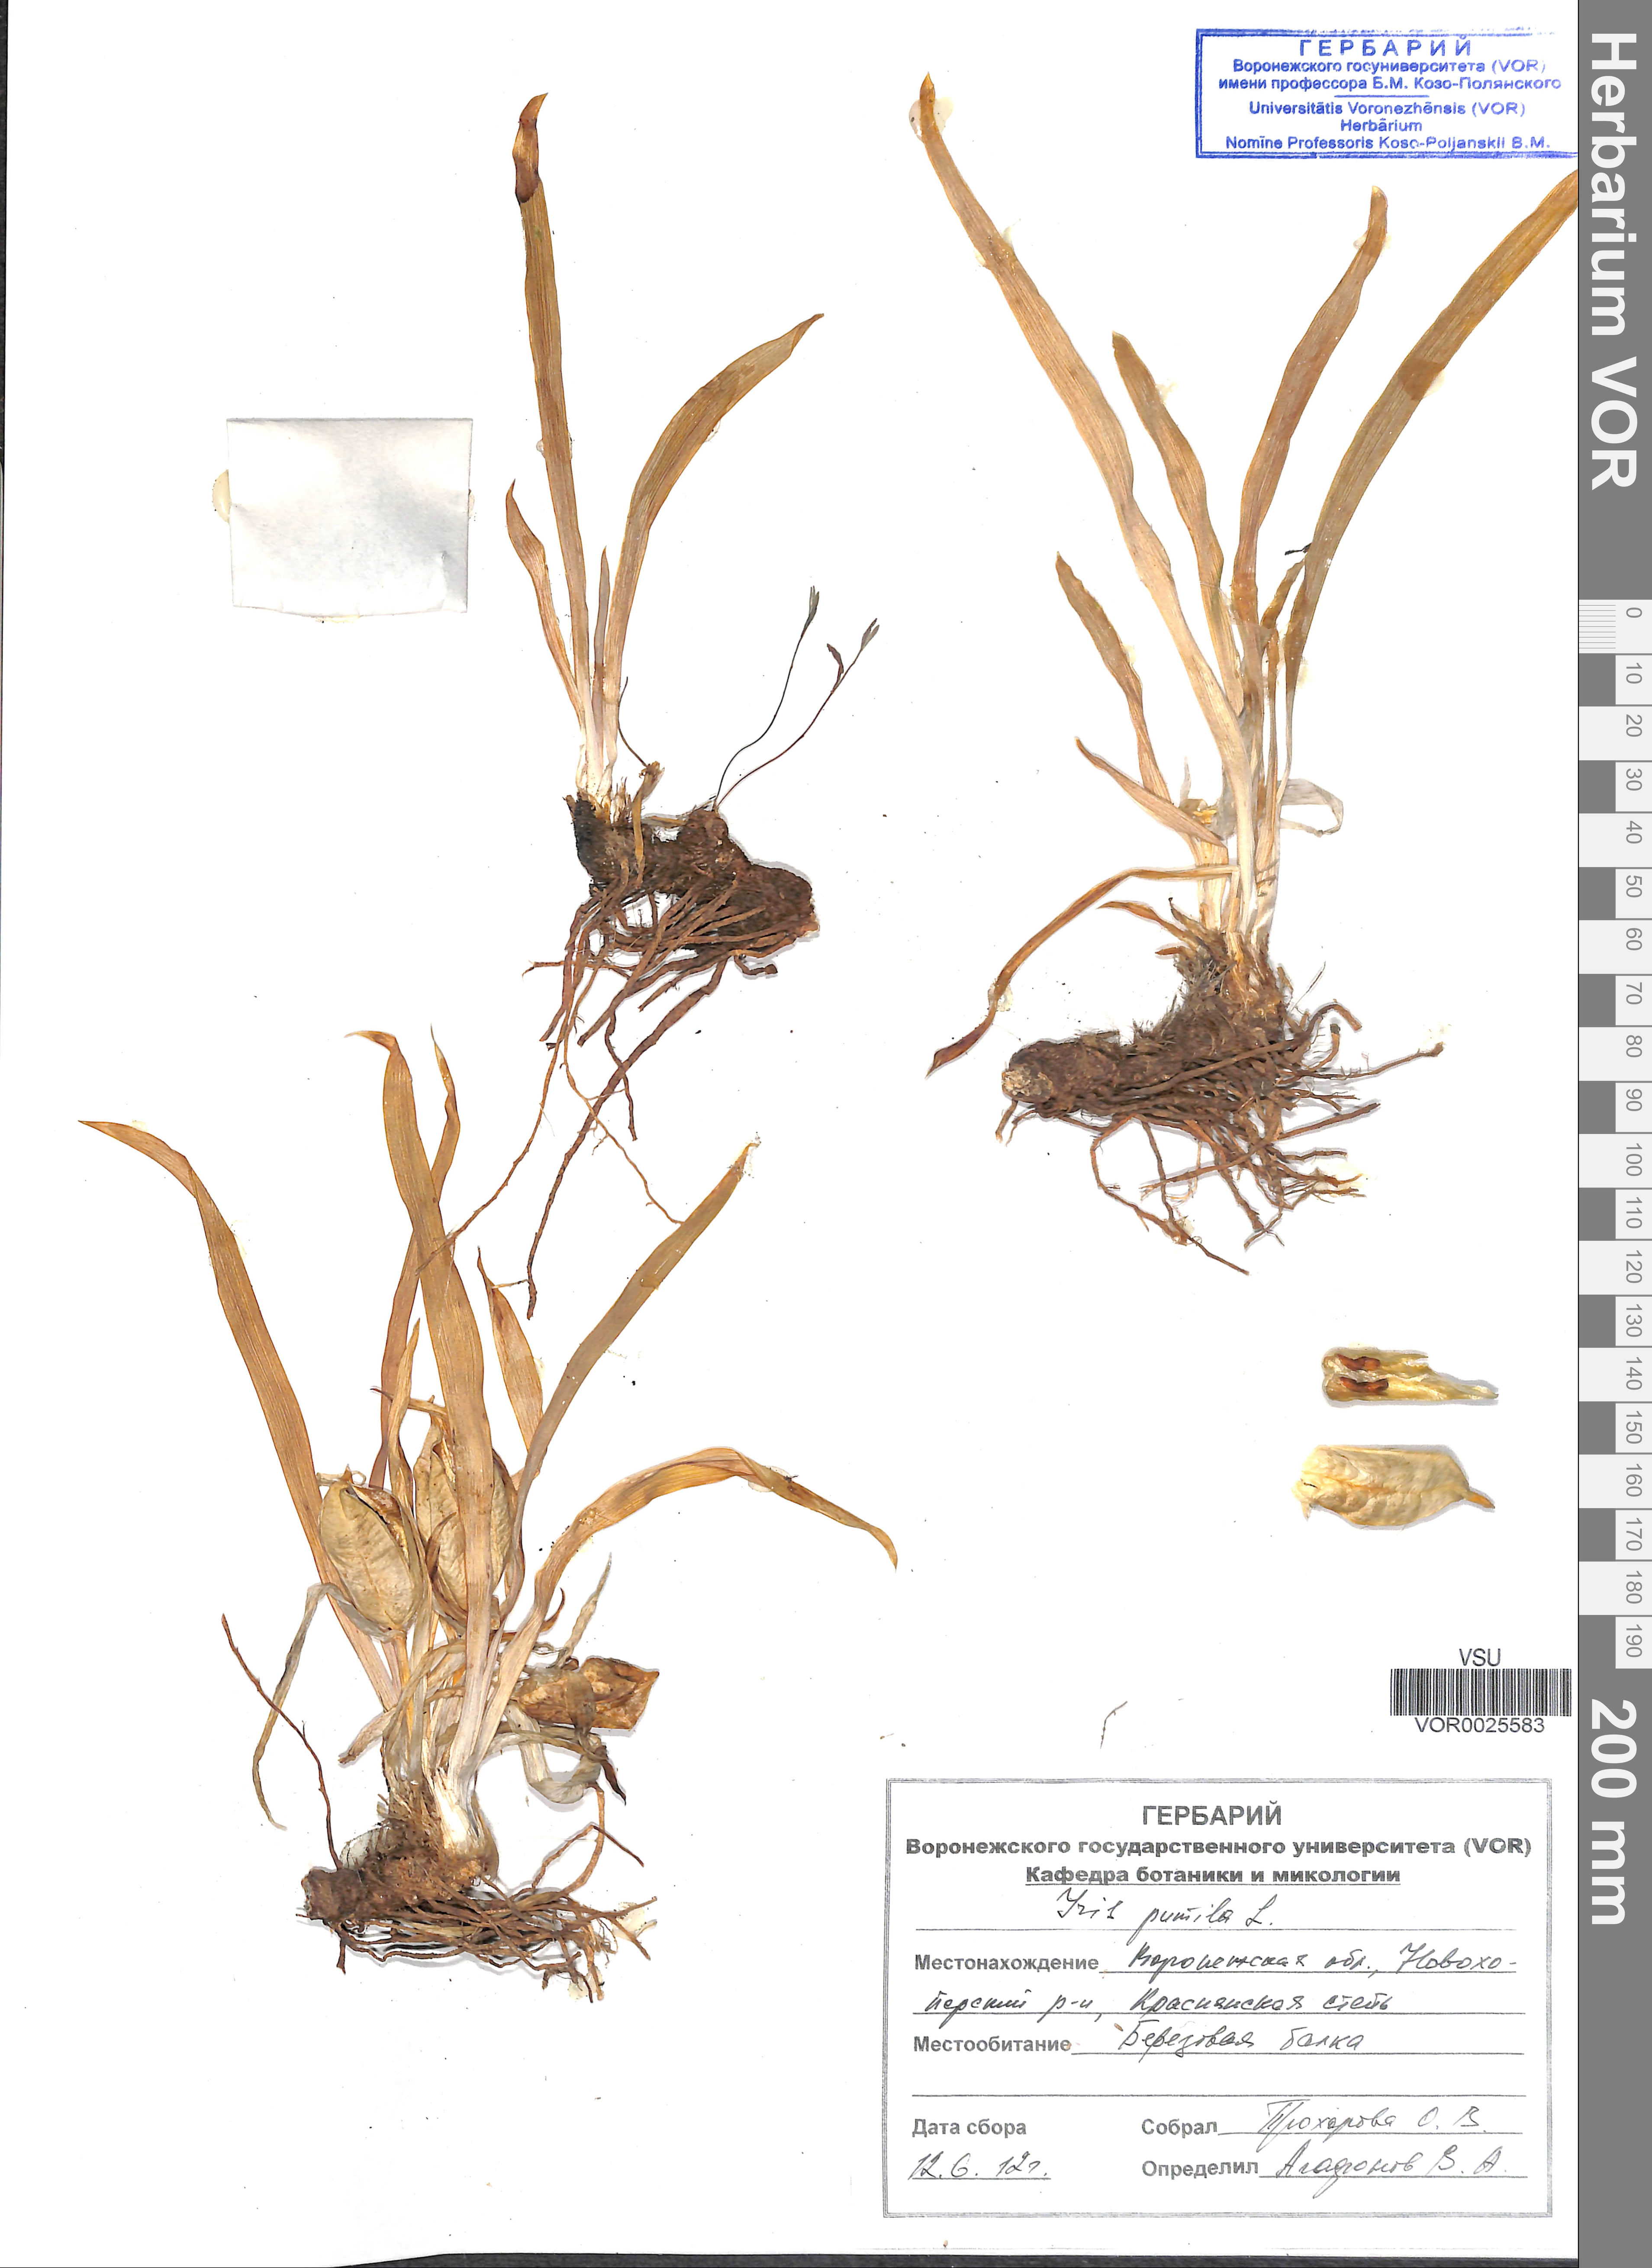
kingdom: Plantae
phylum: Tracheophyta
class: Liliopsida
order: Asparagales
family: Iridaceae
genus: Iris
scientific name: Iris pumila
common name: Dwarf iris
